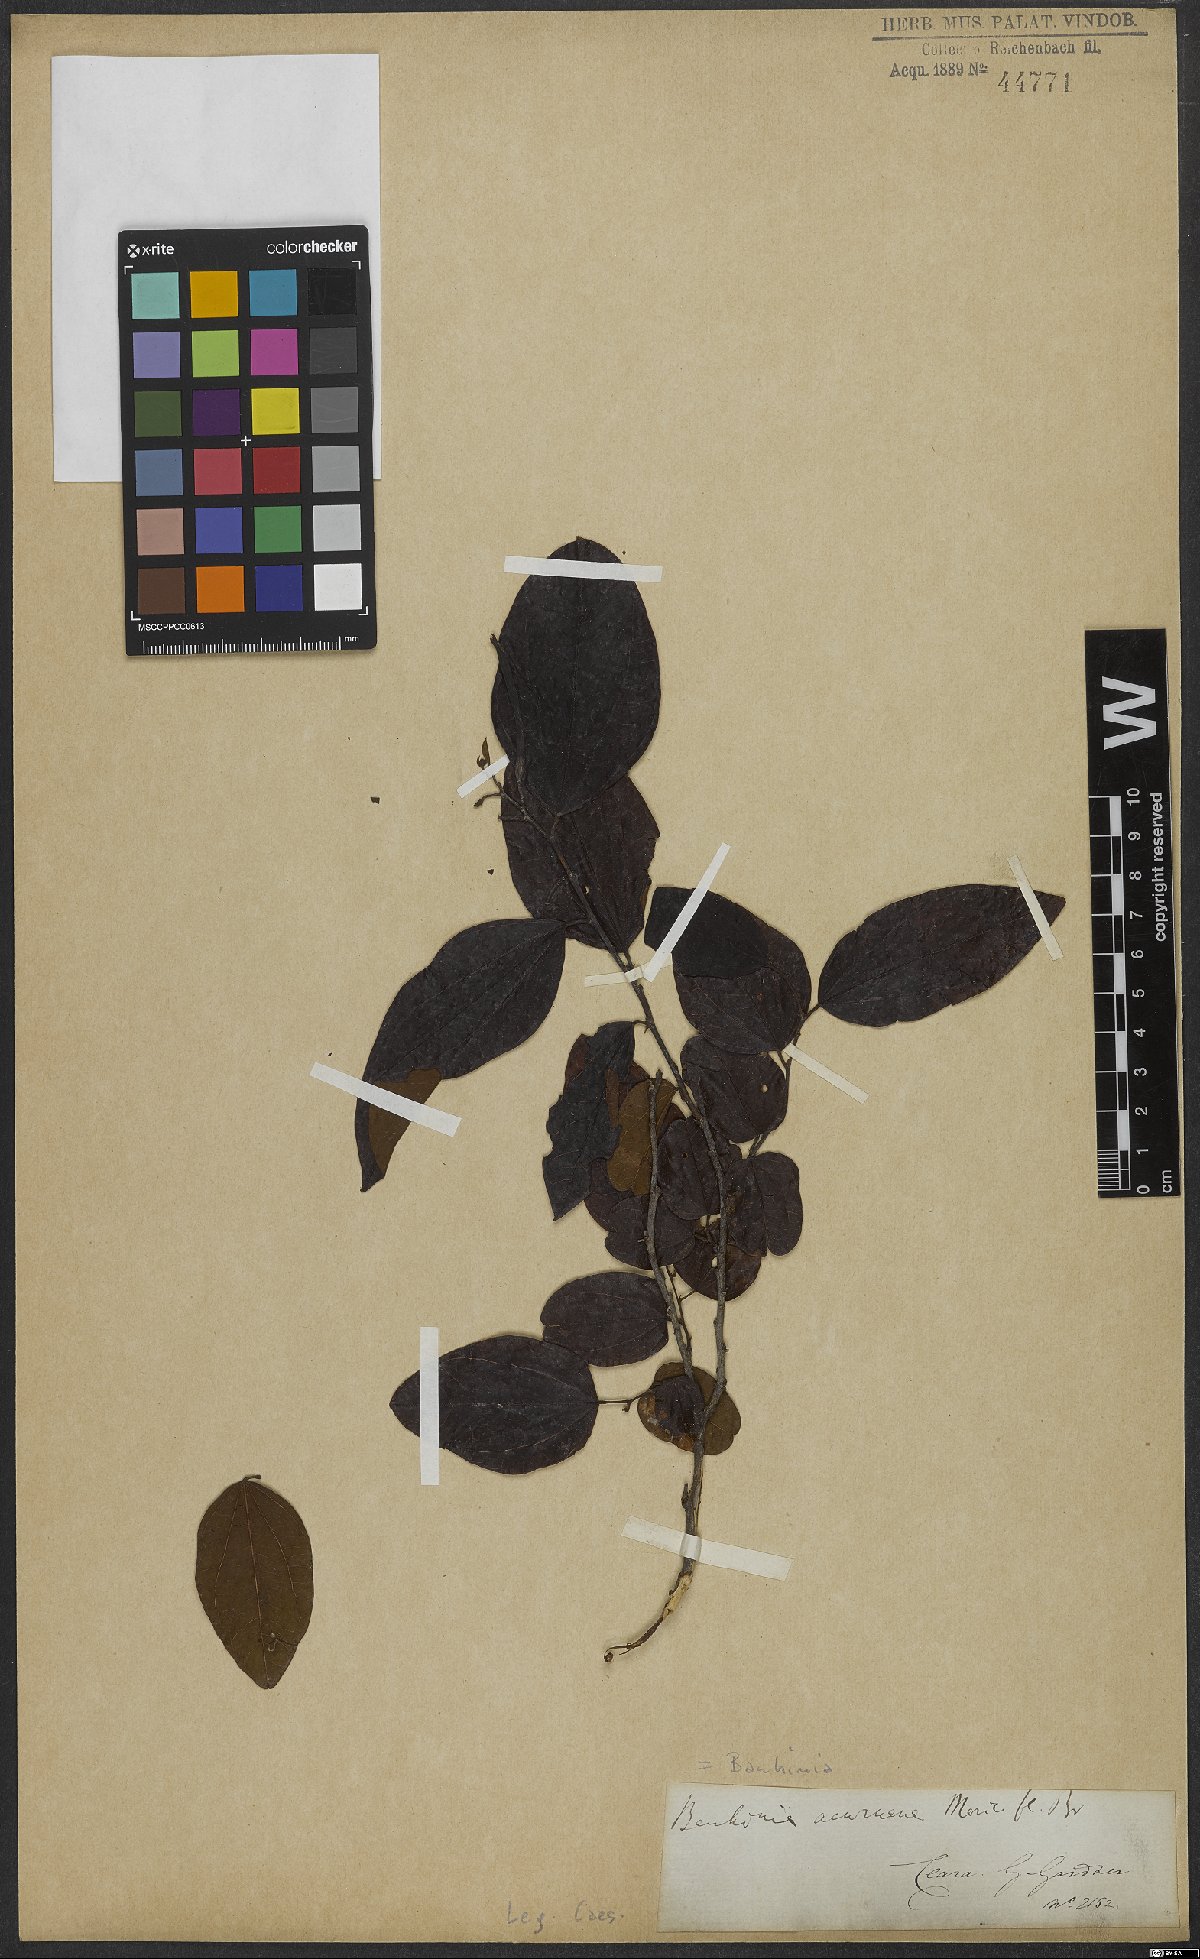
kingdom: Plantae
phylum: Tracheophyta
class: Magnoliopsida
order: Fabales
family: Fabaceae
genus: Bauhinia
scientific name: Bauhinia acuruana
